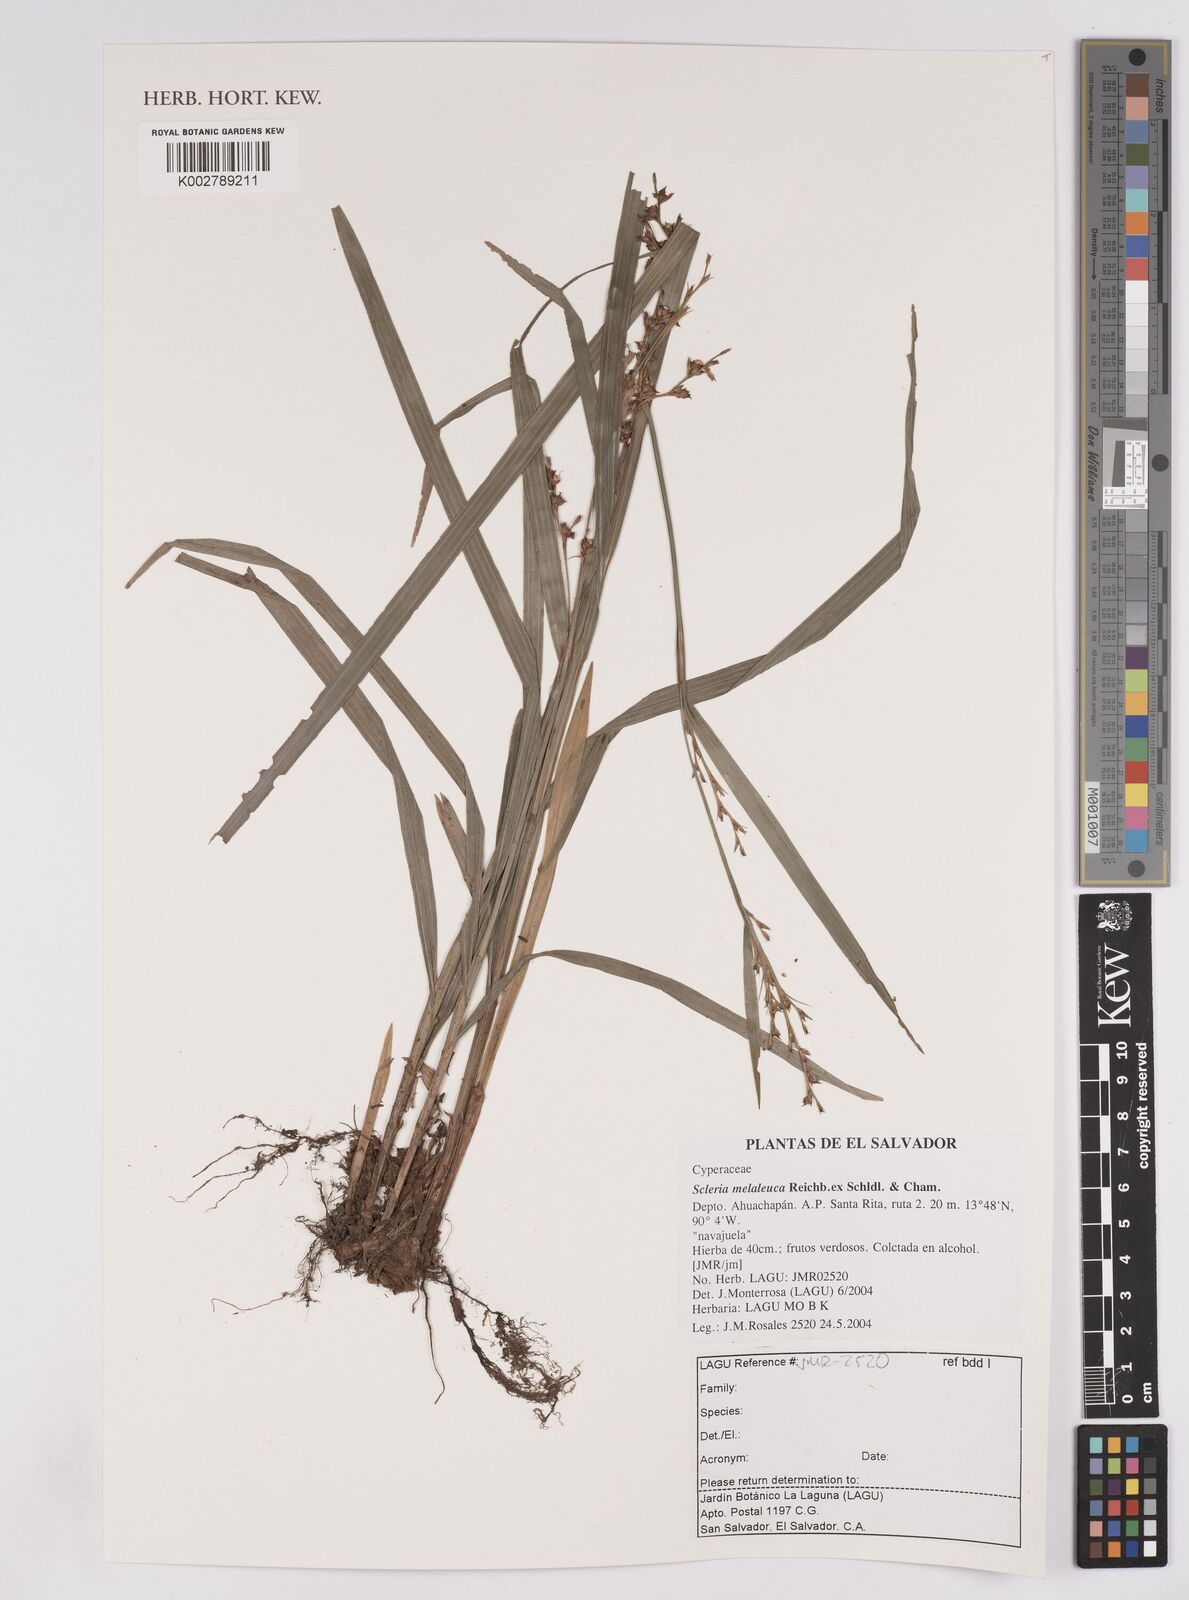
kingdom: Plantae
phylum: Tracheophyta
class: Liliopsida
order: Poales
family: Cyperaceae
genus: Scleria
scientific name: Scleria gaertneri
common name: Cortadera blanca
